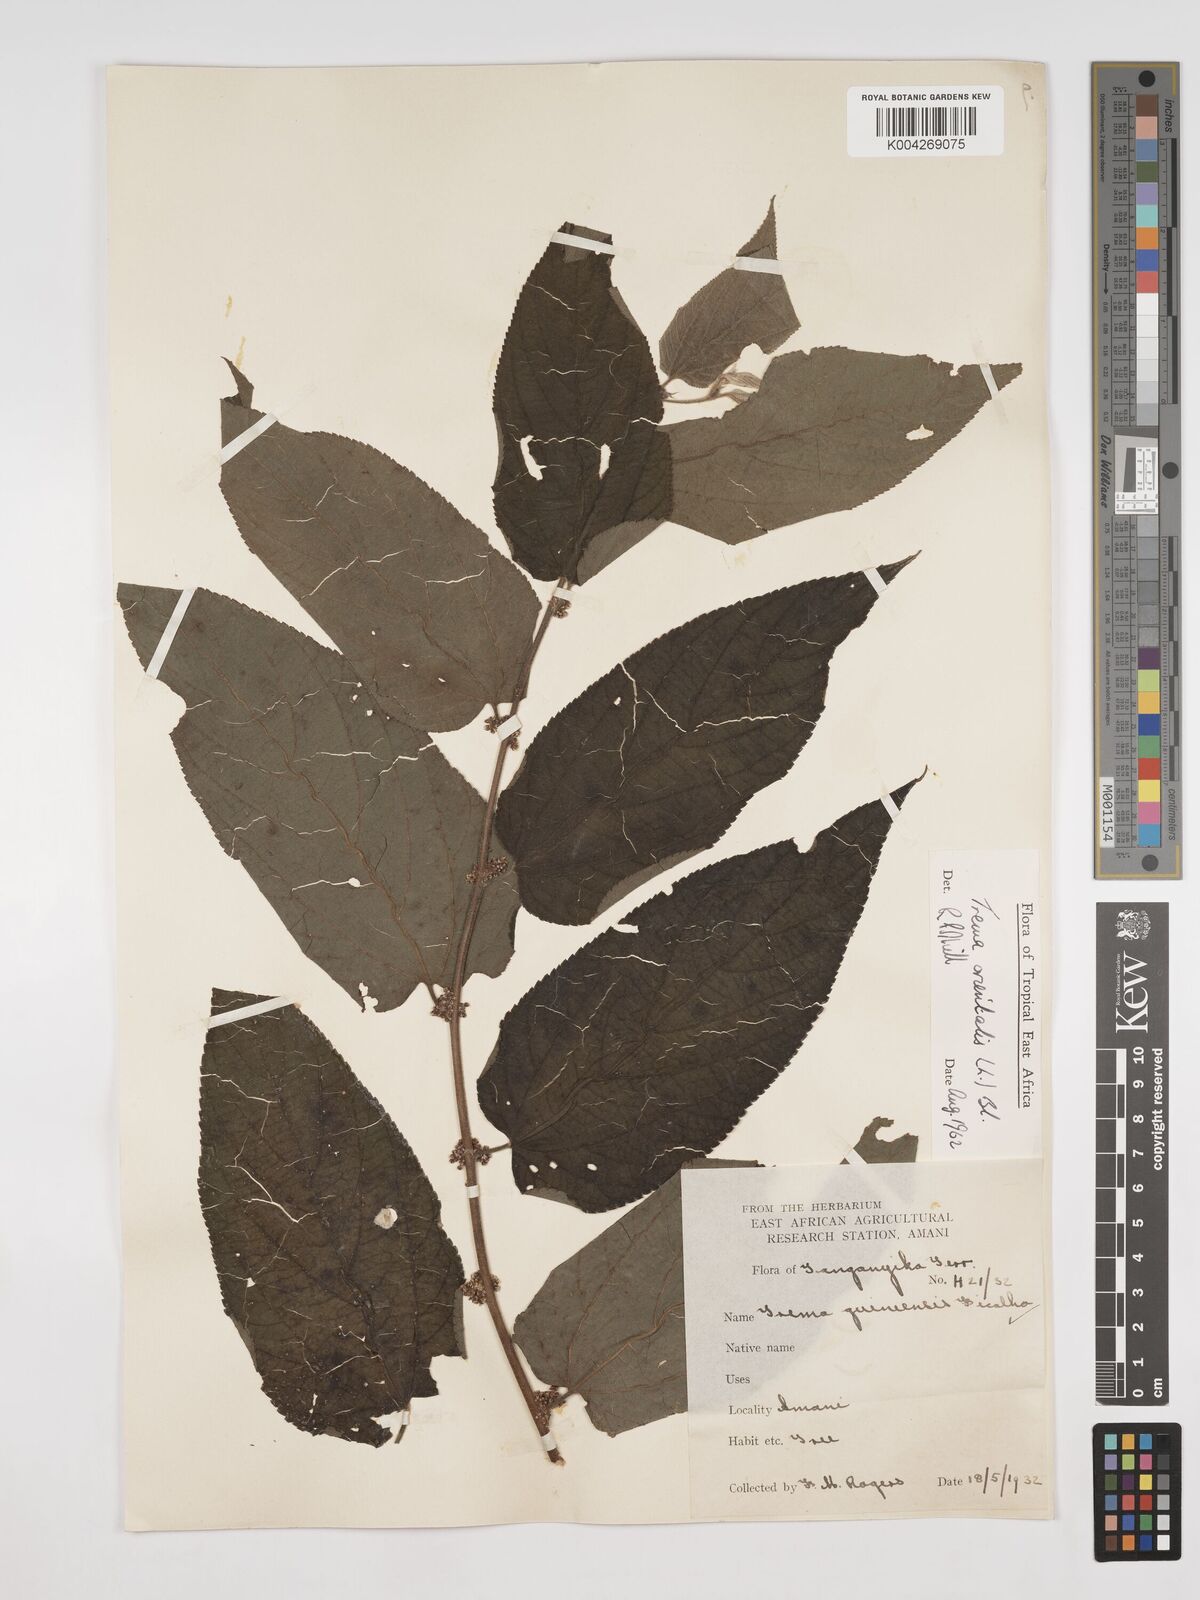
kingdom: Plantae
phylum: Tracheophyta
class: Magnoliopsida
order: Rosales
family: Cannabaceae
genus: Trema
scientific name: Trema orientale
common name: Indian charcoal tree
